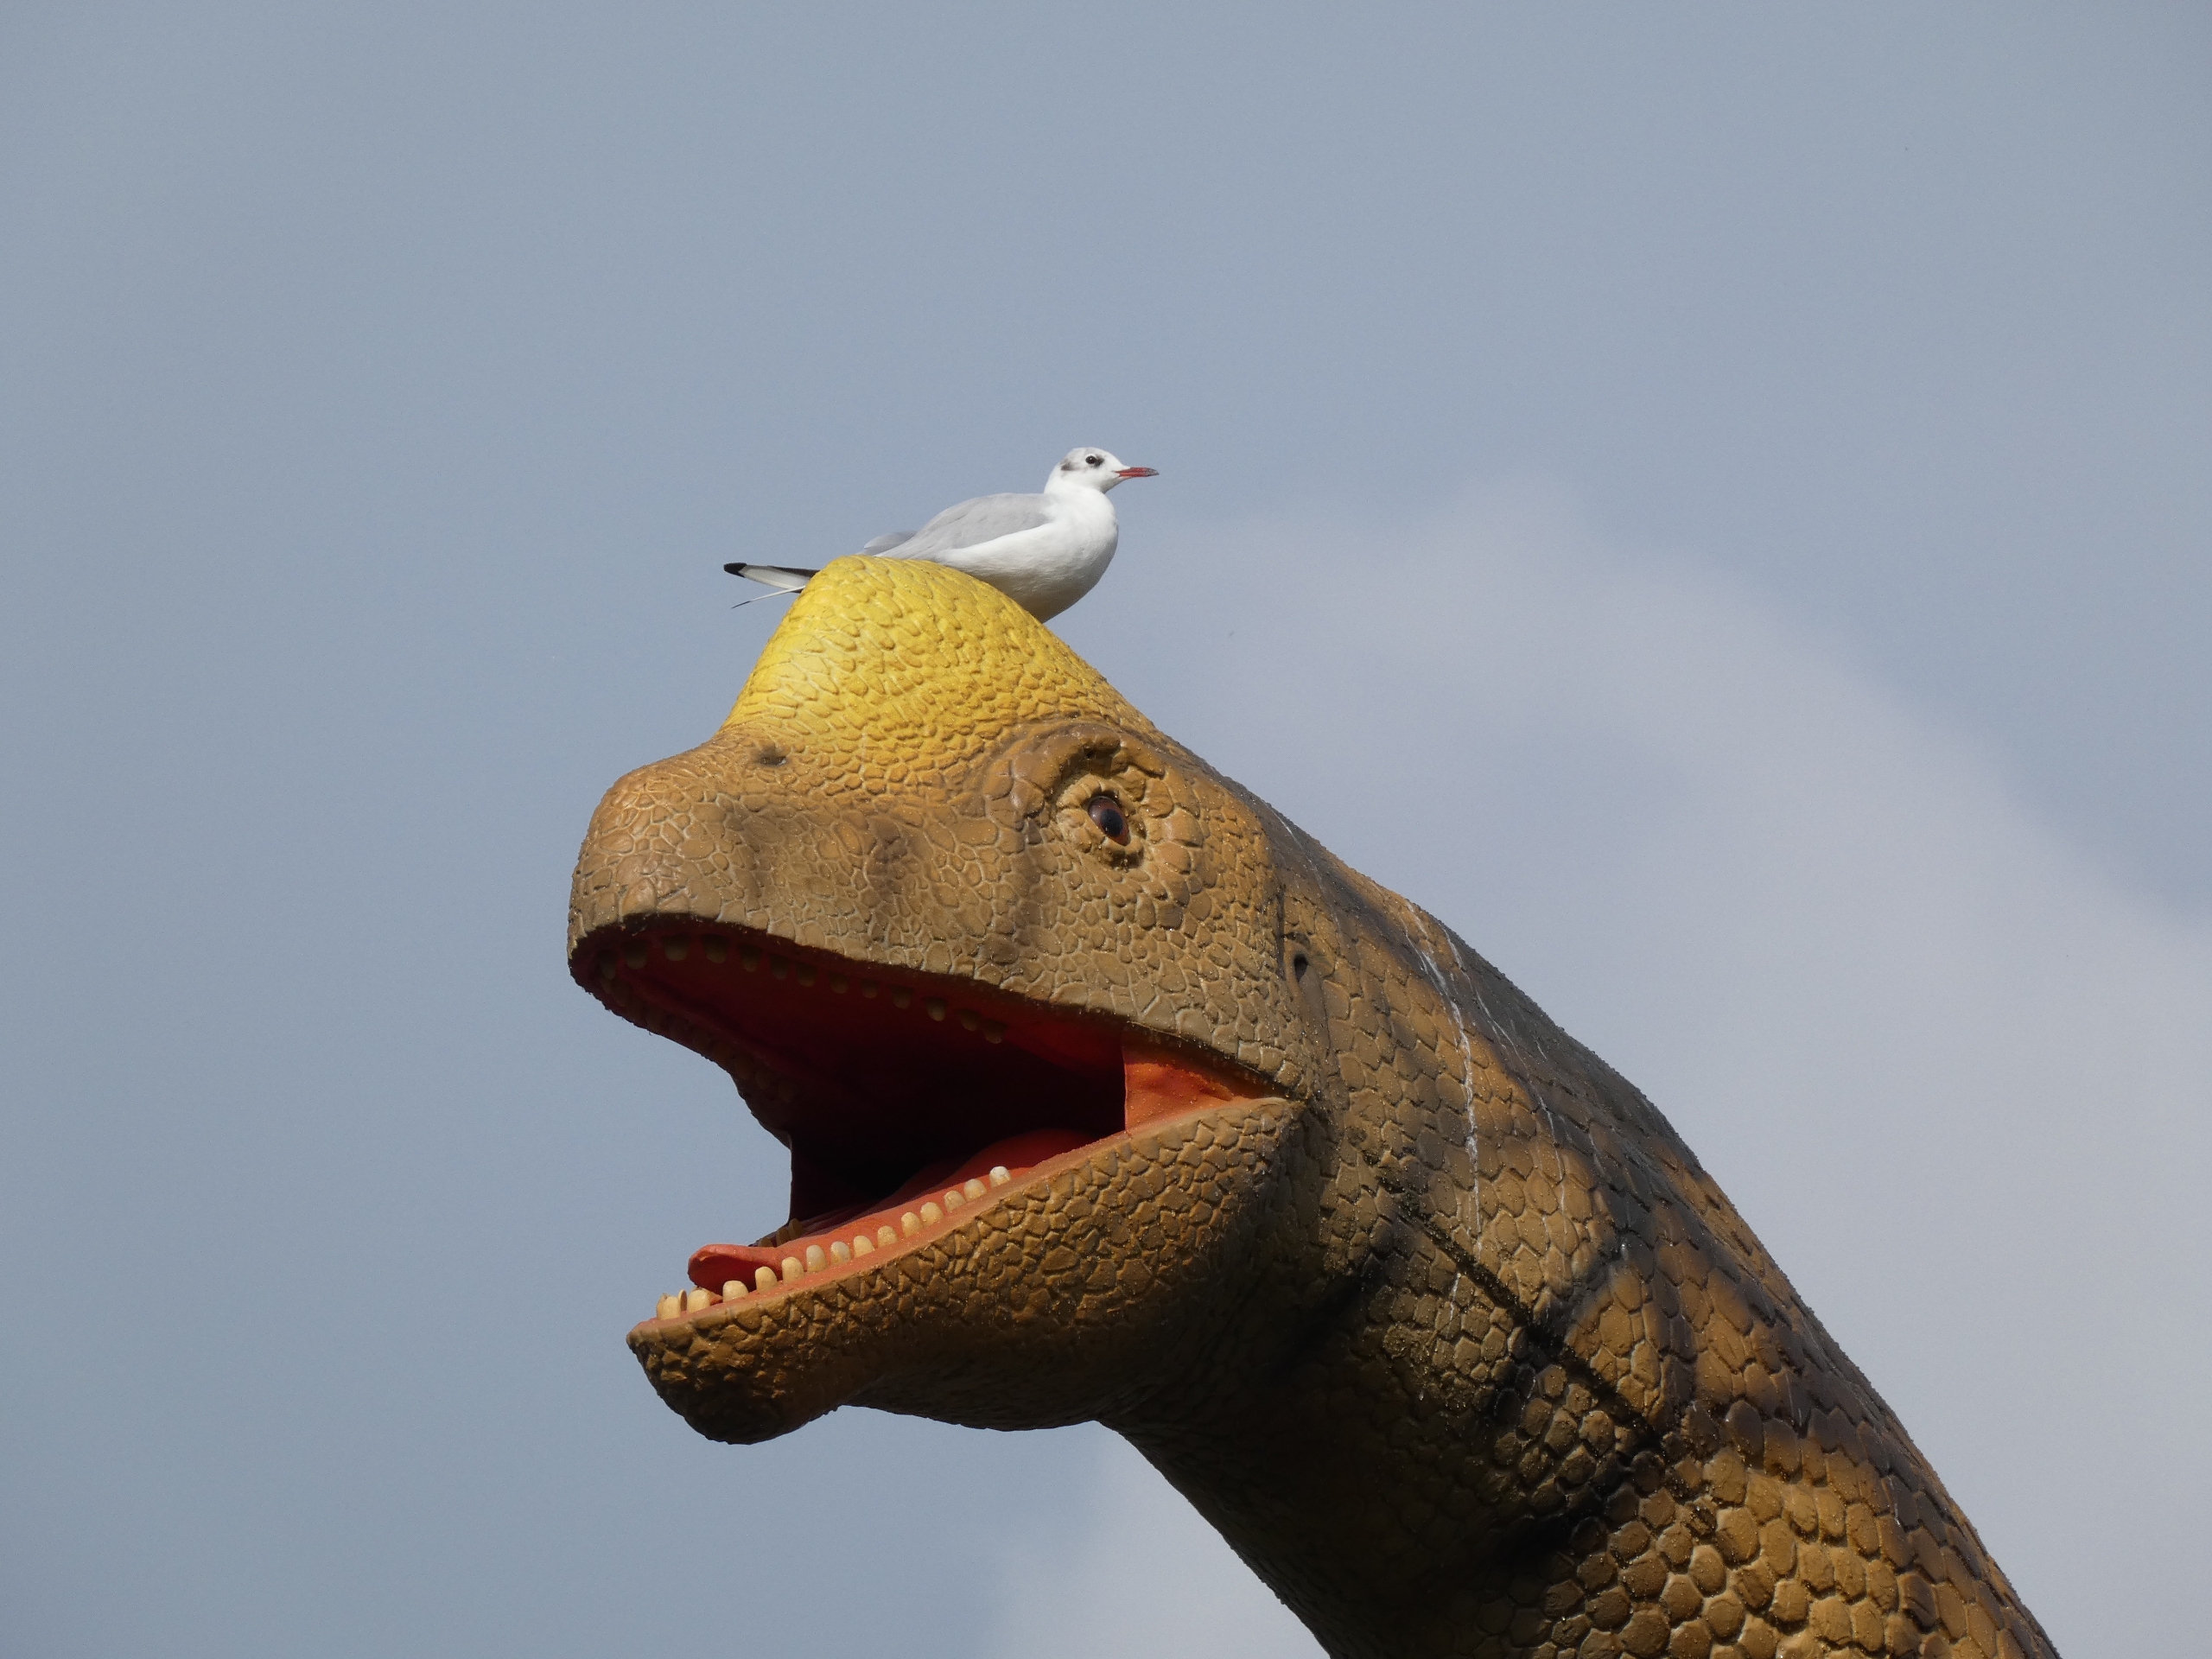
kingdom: Animalia
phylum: Chordata
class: Aves
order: Charadriiformes
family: Laridae
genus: Chroicocephalus
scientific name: Chroicocephalus ridibundus
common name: Hættemåge
